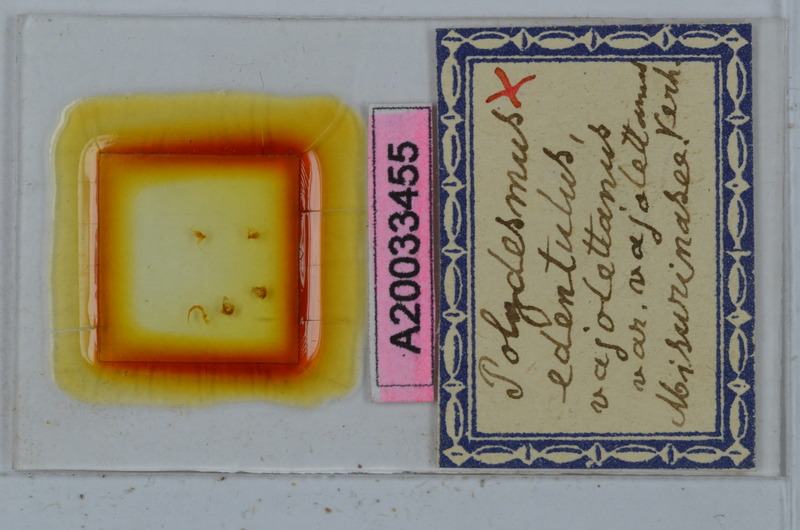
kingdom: Animalia
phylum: Arthropoda
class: Diplopoda
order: Polydesmida
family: Polydesmidae
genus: Polydesmus
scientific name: Polydesmus edentulus
